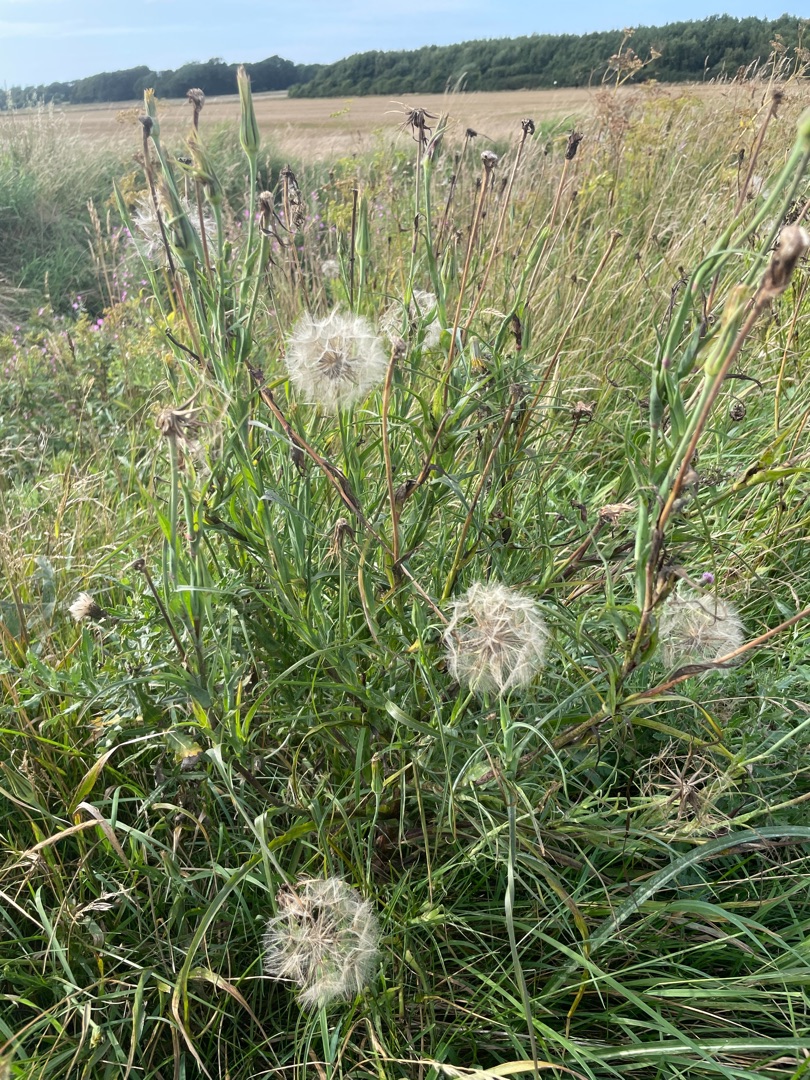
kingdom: Plantae
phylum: Tracheophyta
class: Magnoliopsida
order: Asterales
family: Asteraceae
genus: Tragopogon
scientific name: Tragopogon pratensis
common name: Gedeskæg
